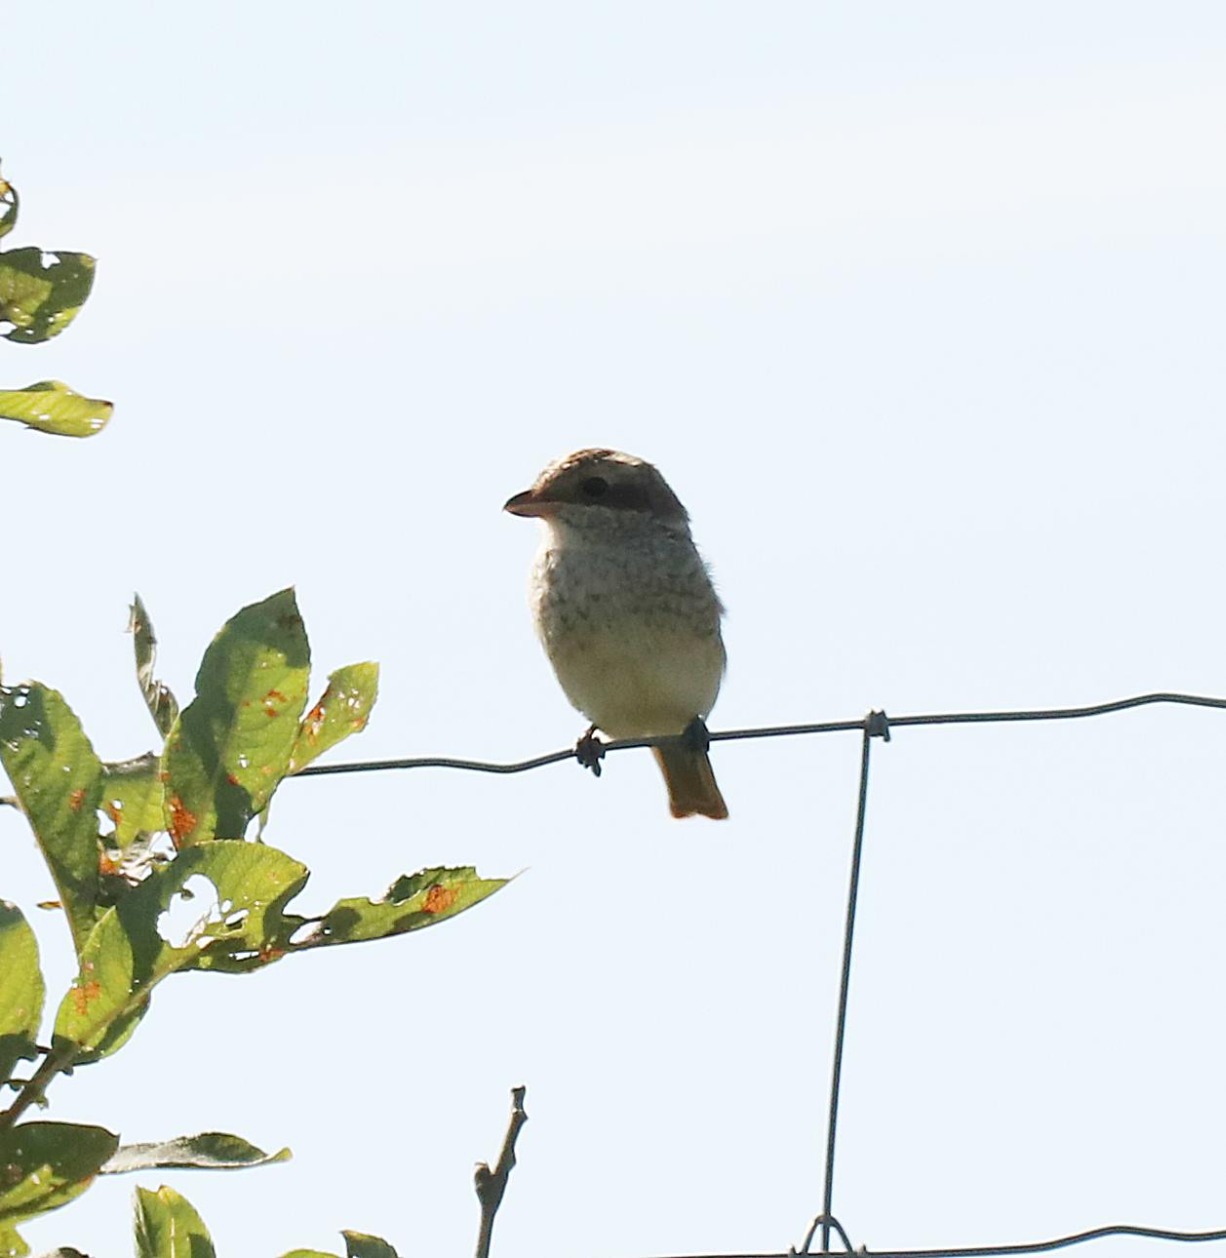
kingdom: Animalia
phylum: Chordata
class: Aves
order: Passeriformes
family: Laniidae
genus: Lanius
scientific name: Lanius collurio
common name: Rødrygget tornskade
